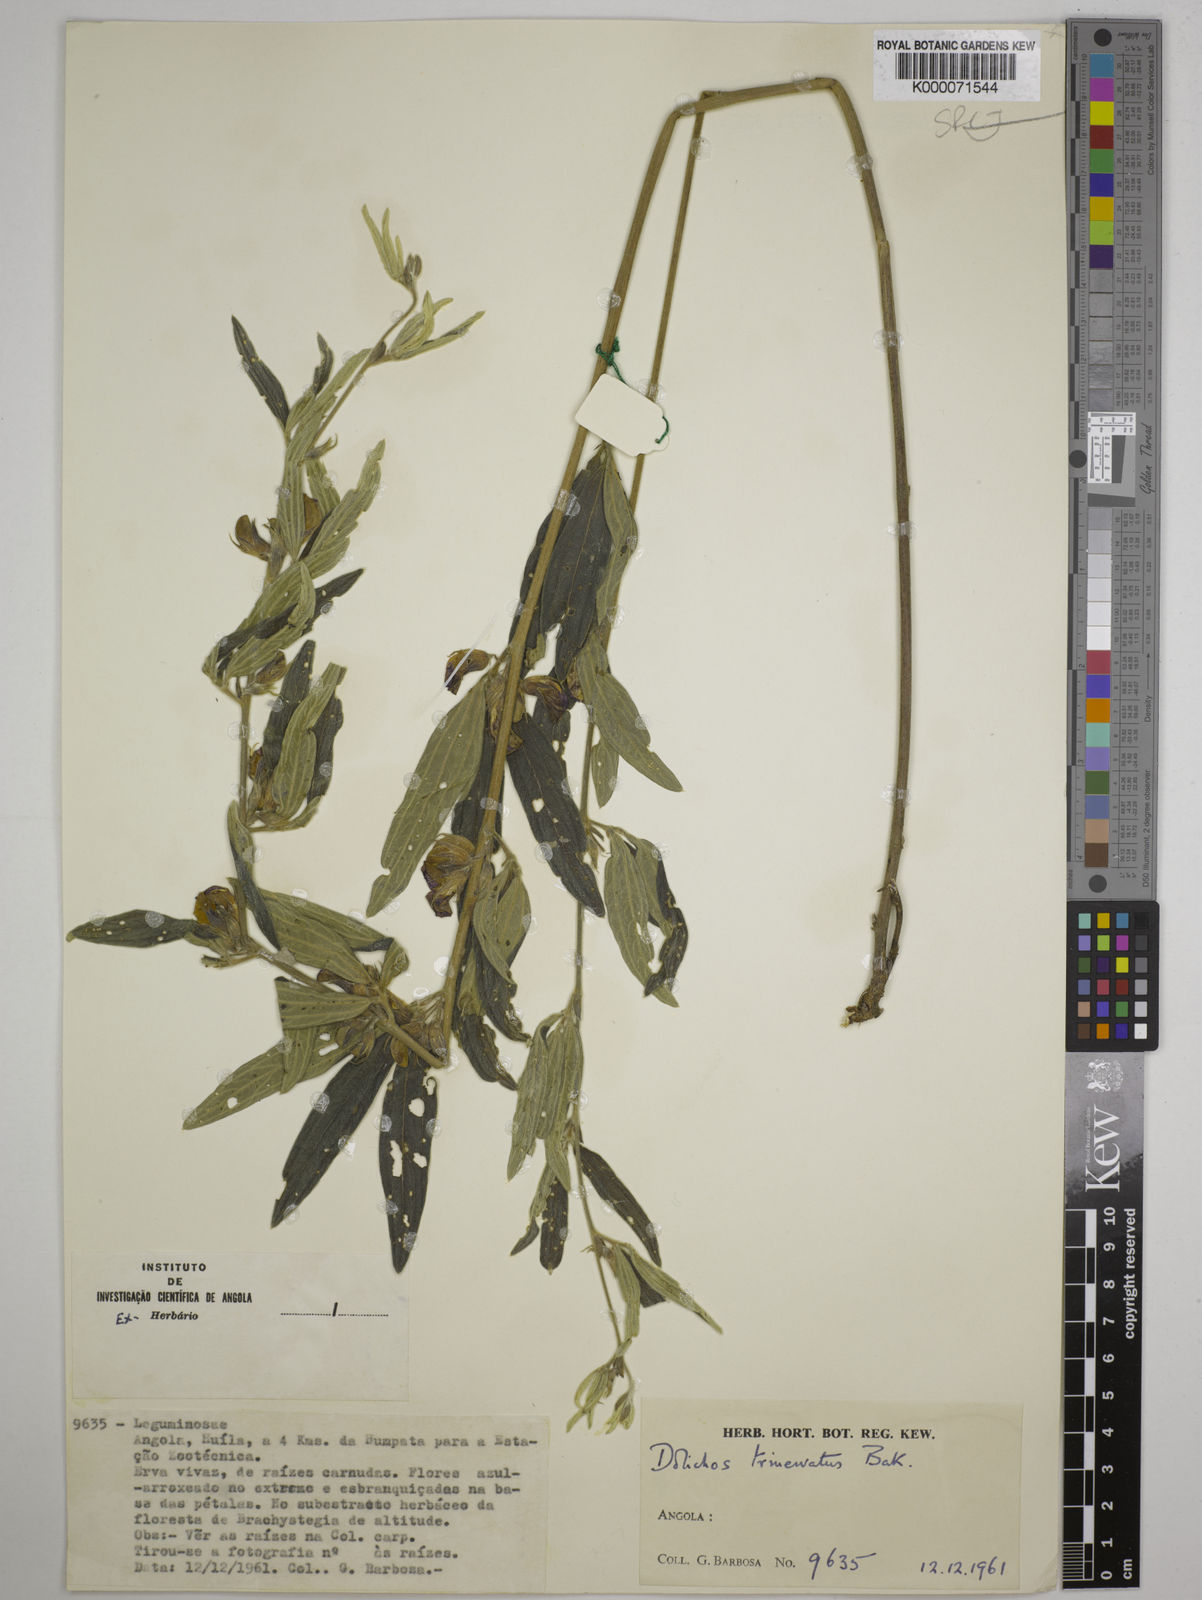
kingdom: Plantae
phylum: Tracheophyta
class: Magnoliopsida
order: Fabales
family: Fabaceae
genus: Dolichos
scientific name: Dolichos trinervatus
